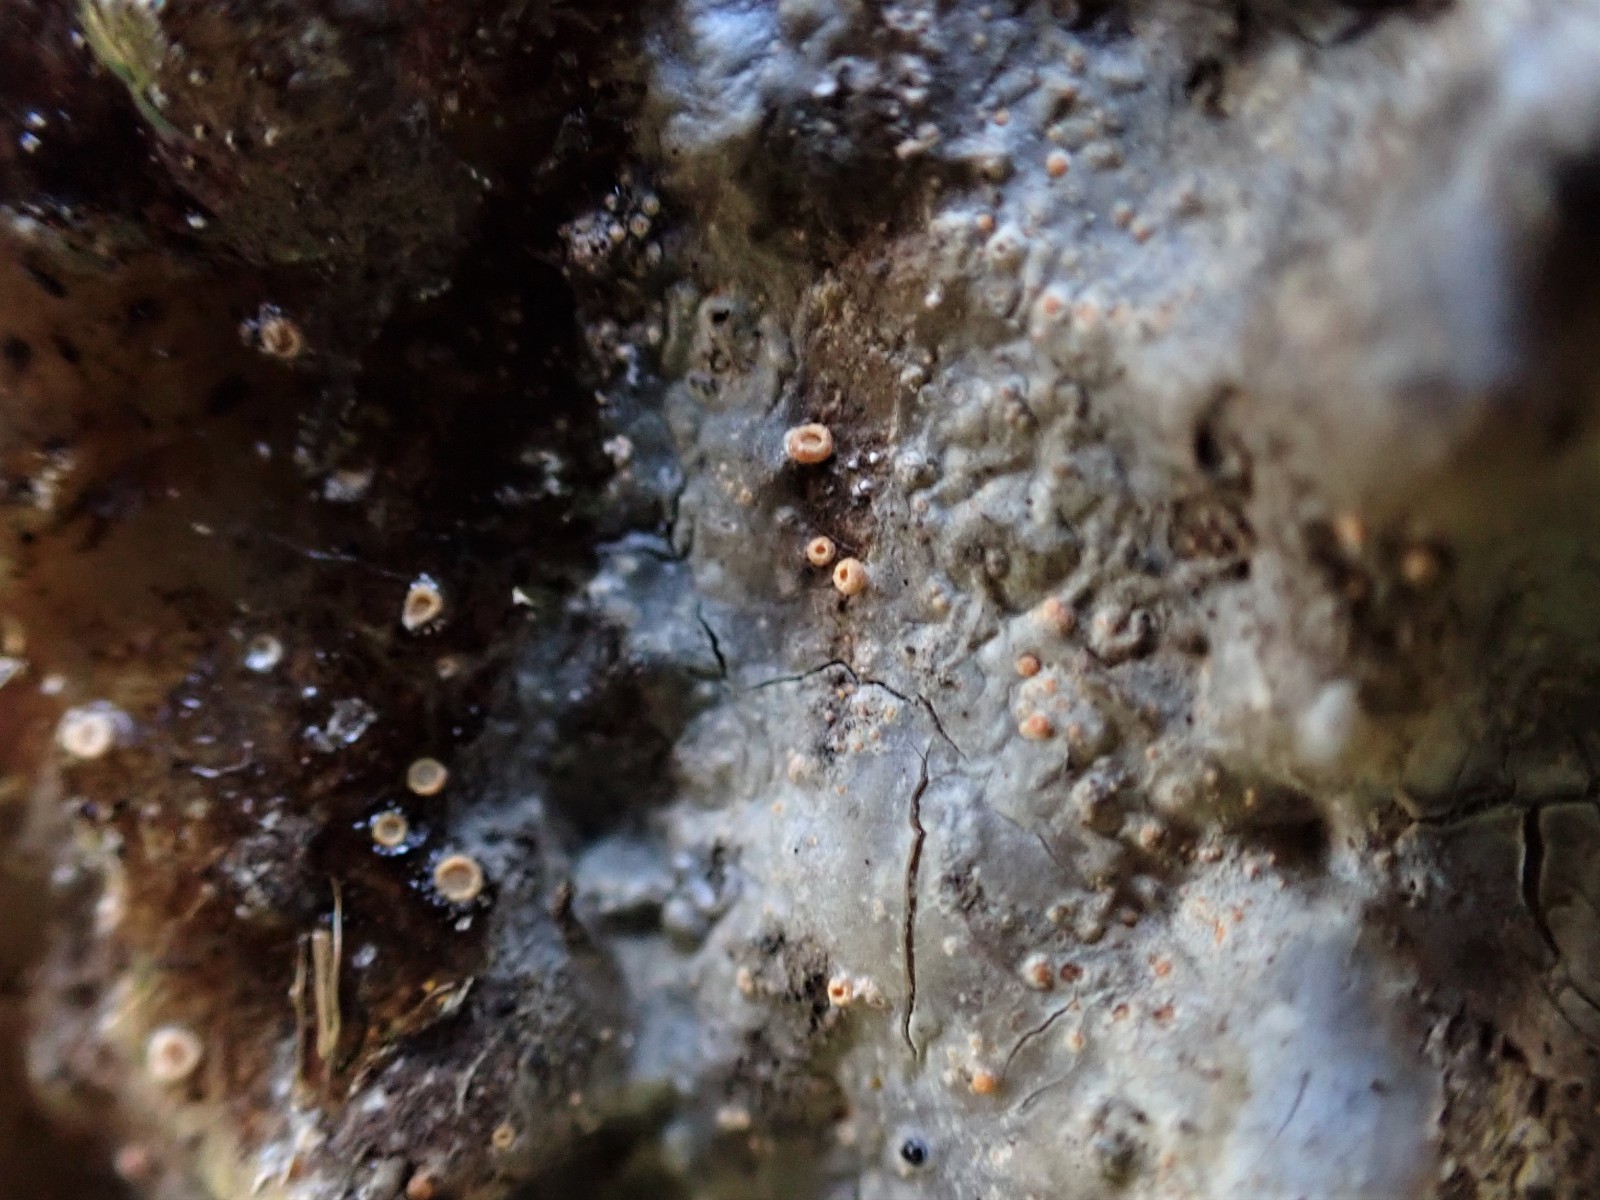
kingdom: Fungi
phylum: Ascomycota
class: Sareomycetes
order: Sareales
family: Sareaceae
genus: Sarea
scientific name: Sarea resinae
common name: orangegul harpiksskive
